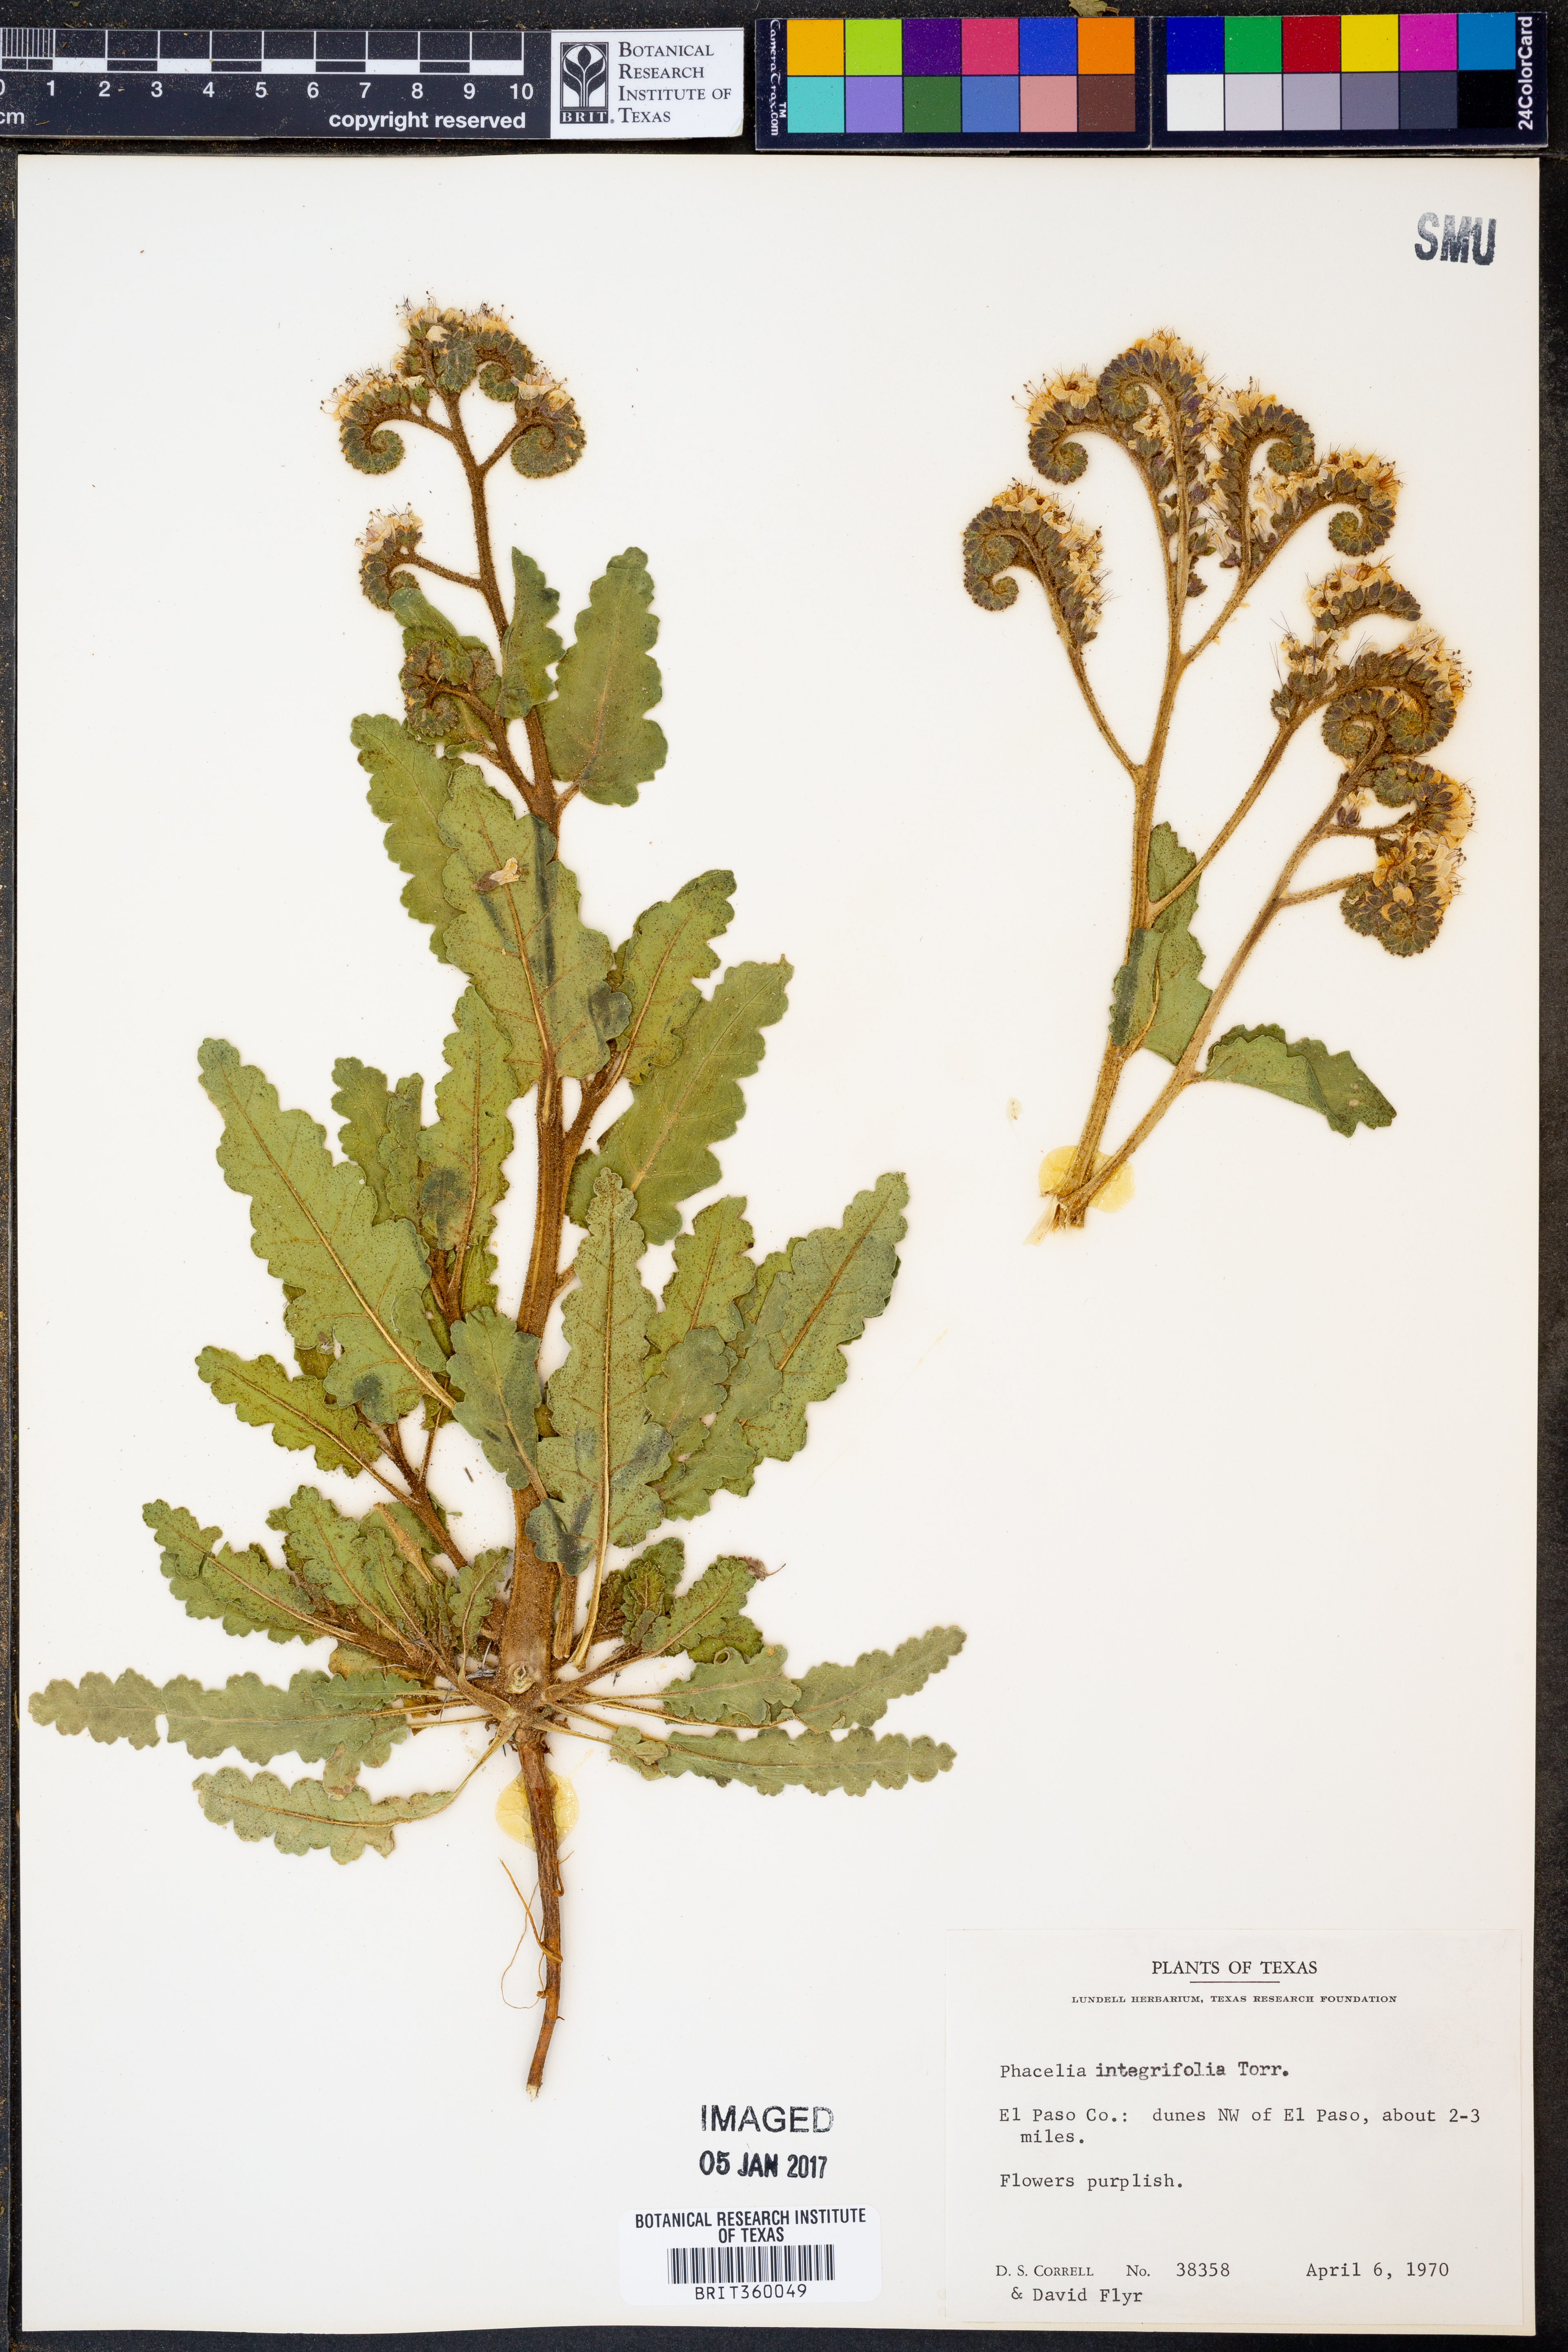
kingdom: Plantae
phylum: Tracheophyta
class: Magnoliopsida
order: Boraginales
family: Hydrophyllaceae
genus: Phacelia
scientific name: Phacelia integrifolia
